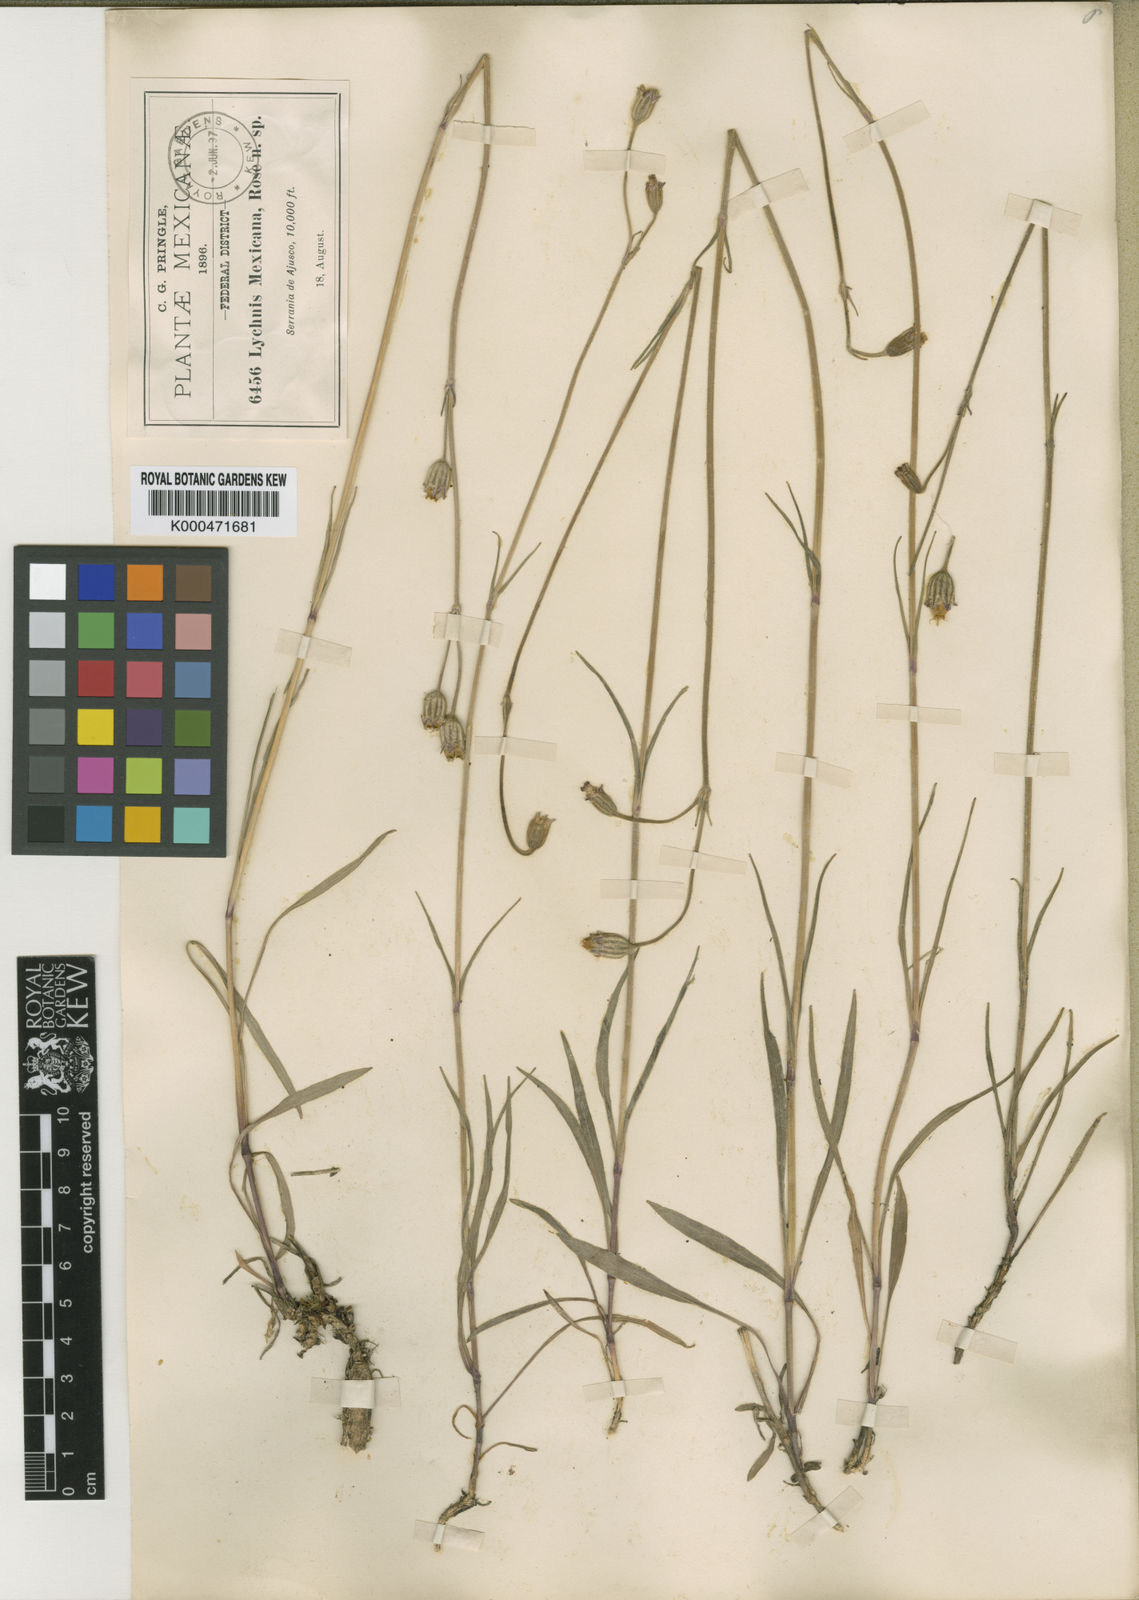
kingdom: Plantae
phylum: Tracheophyta
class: Magnoliopsida
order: Caryophyllales
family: Caryophyllaceae
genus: Silene
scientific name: Silene favargeri
